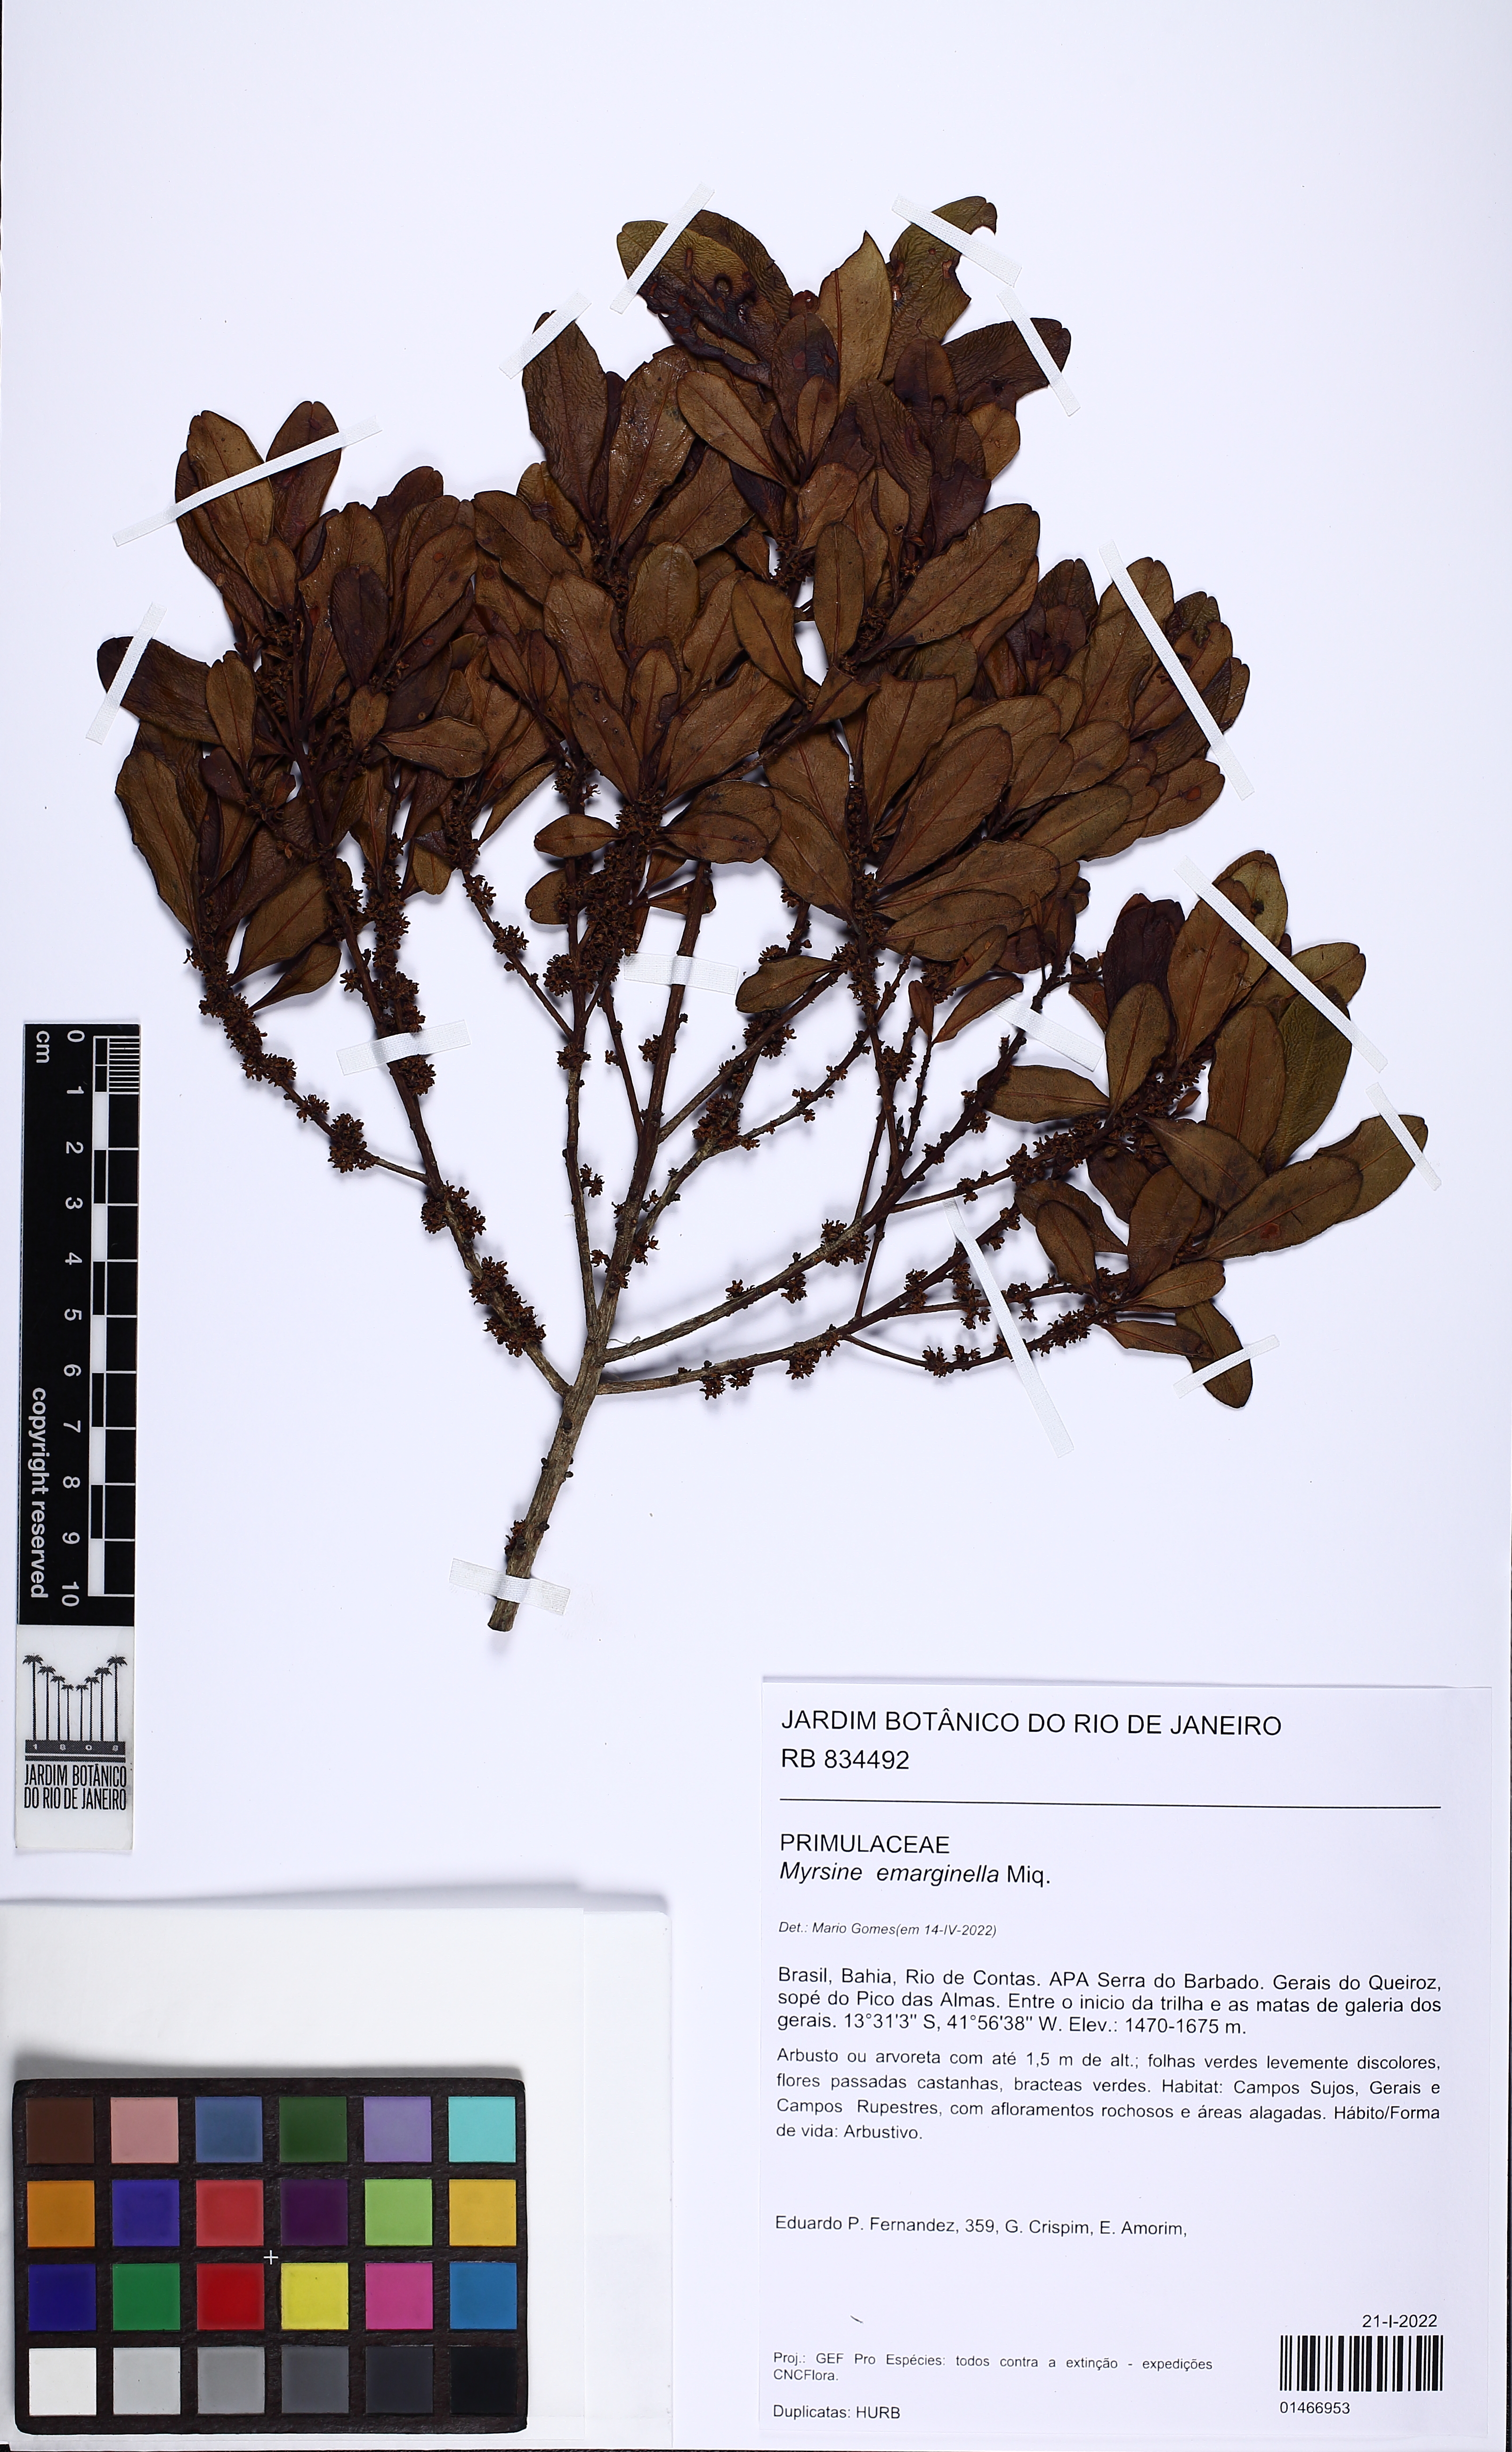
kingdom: Plantae
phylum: Tracheophyta
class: Magnoliopsida
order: Ericales
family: Primulaceae
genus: Myrsine
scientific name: Myrsine emarginella
